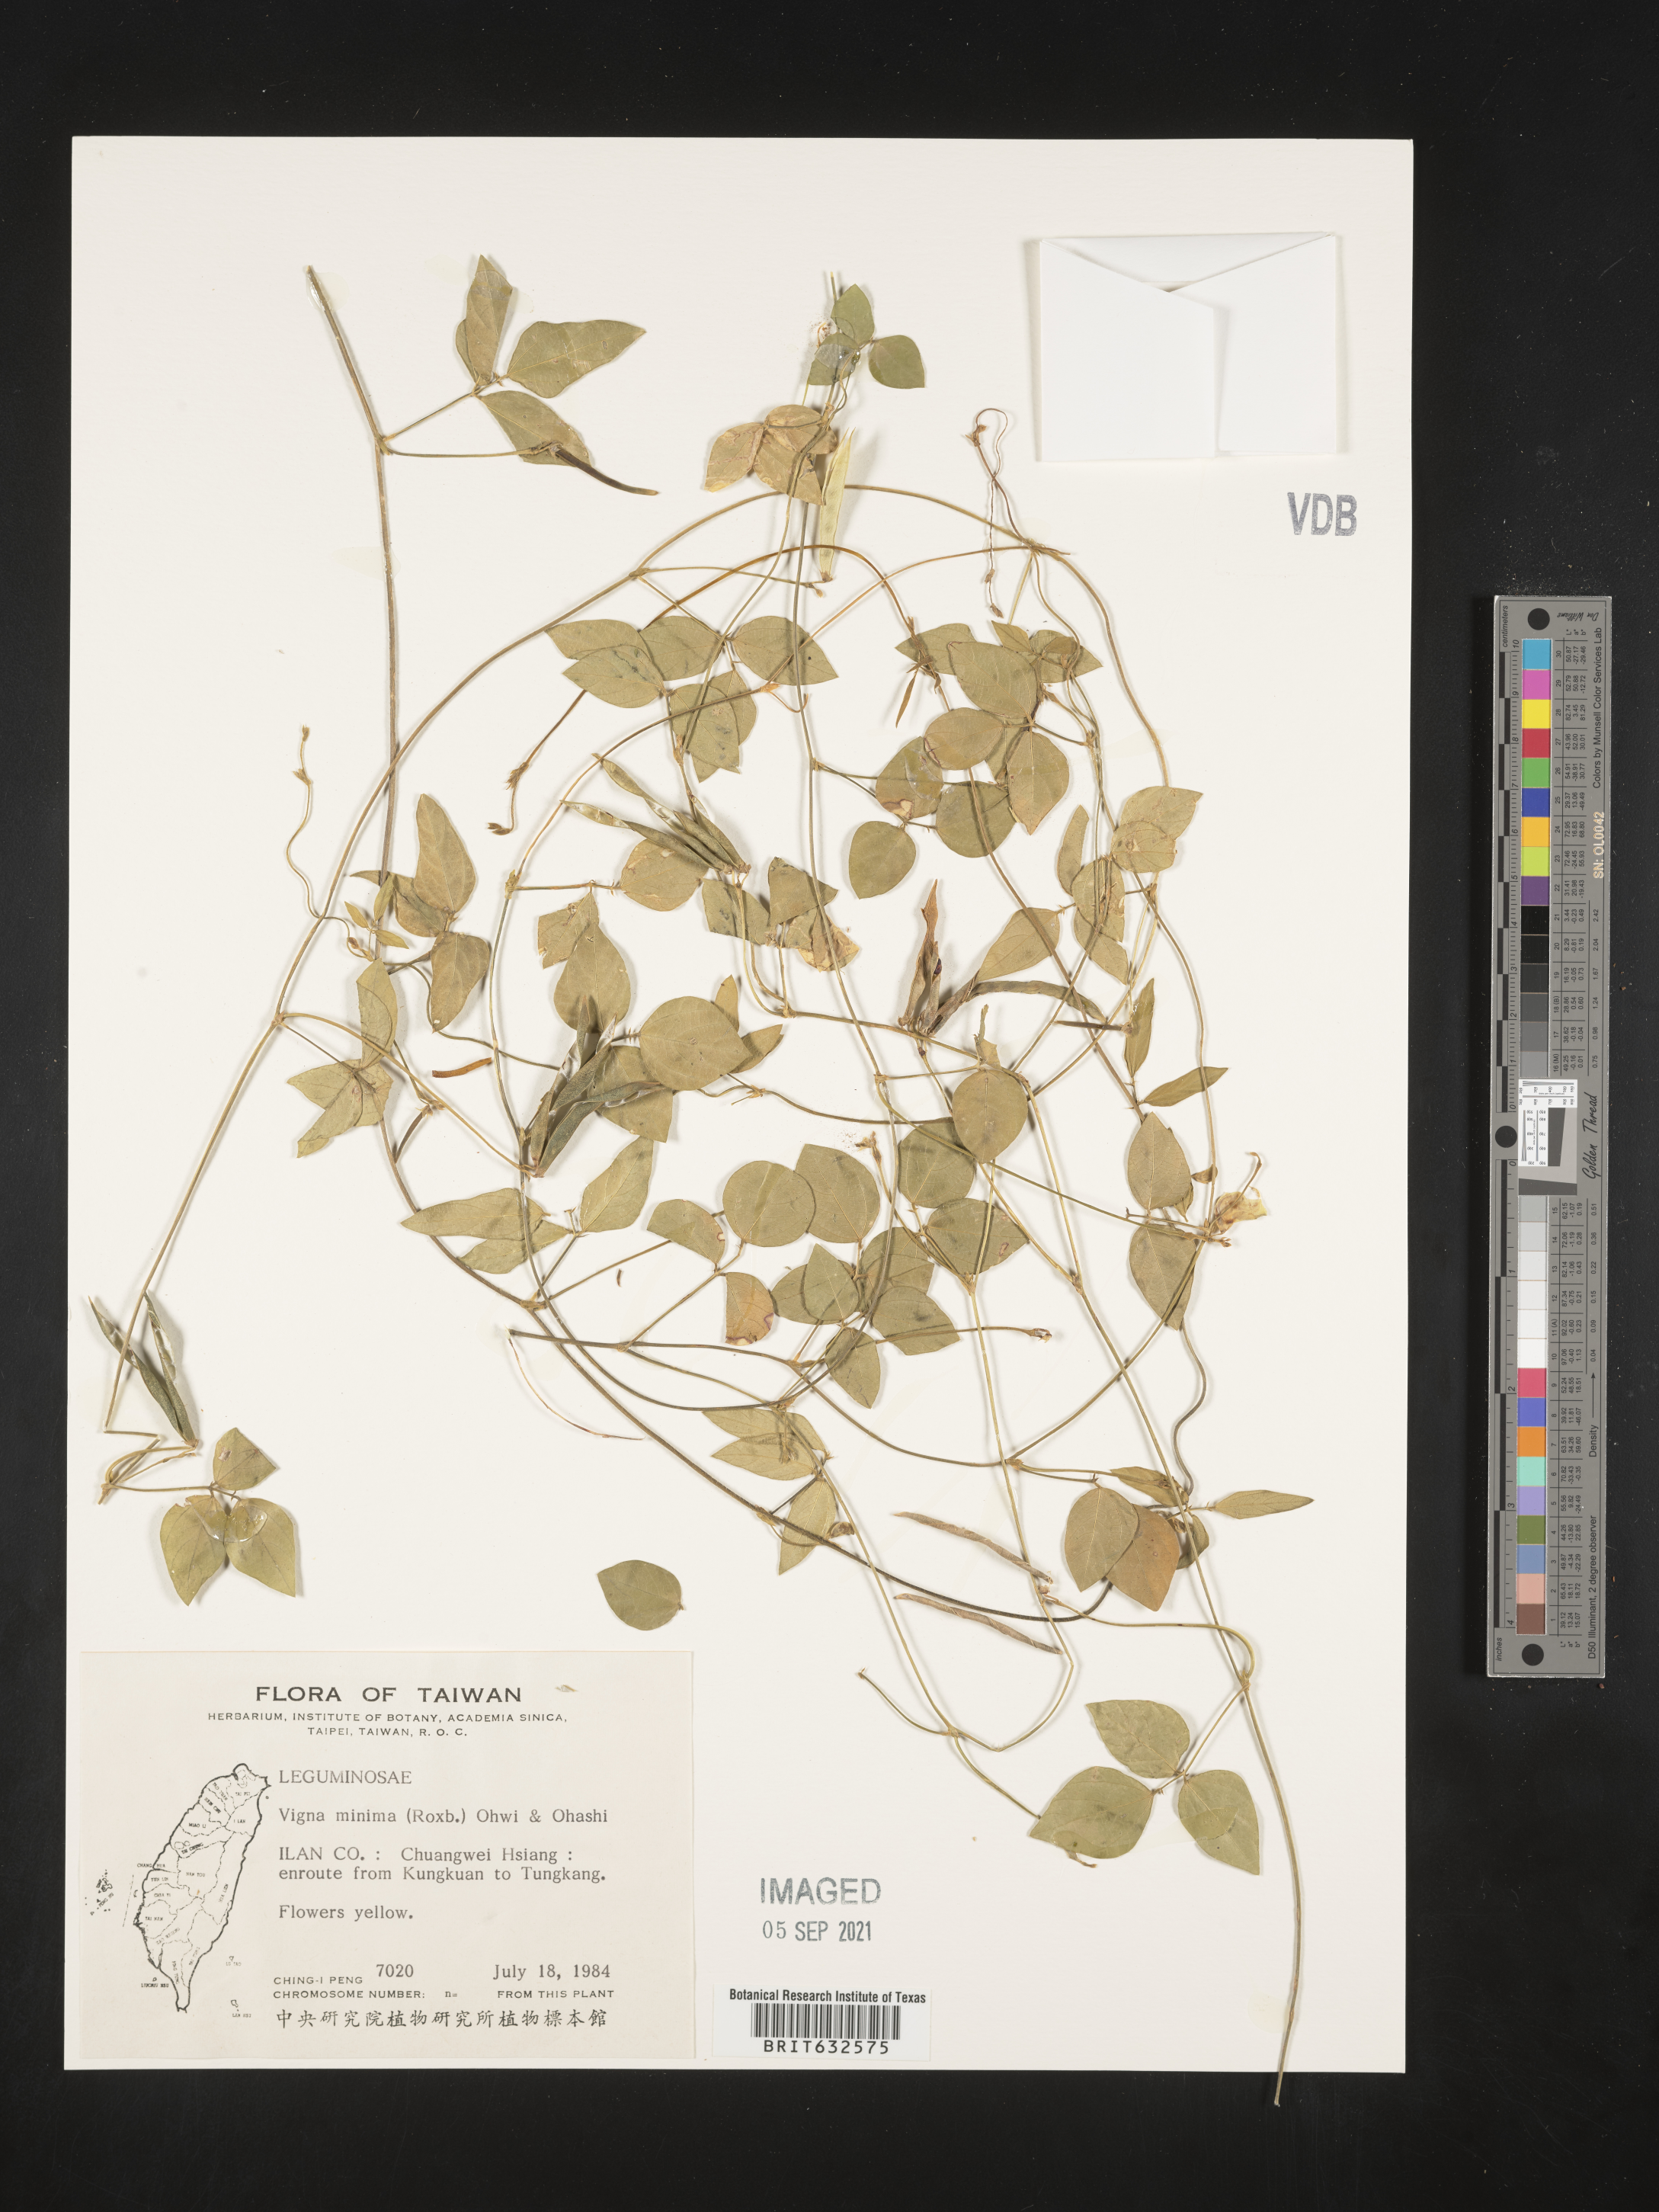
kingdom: Plantae
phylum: Tracheophyta
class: Magnoliopsida
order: Fabales
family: Fabaceae
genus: Vigna
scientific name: Vigna
